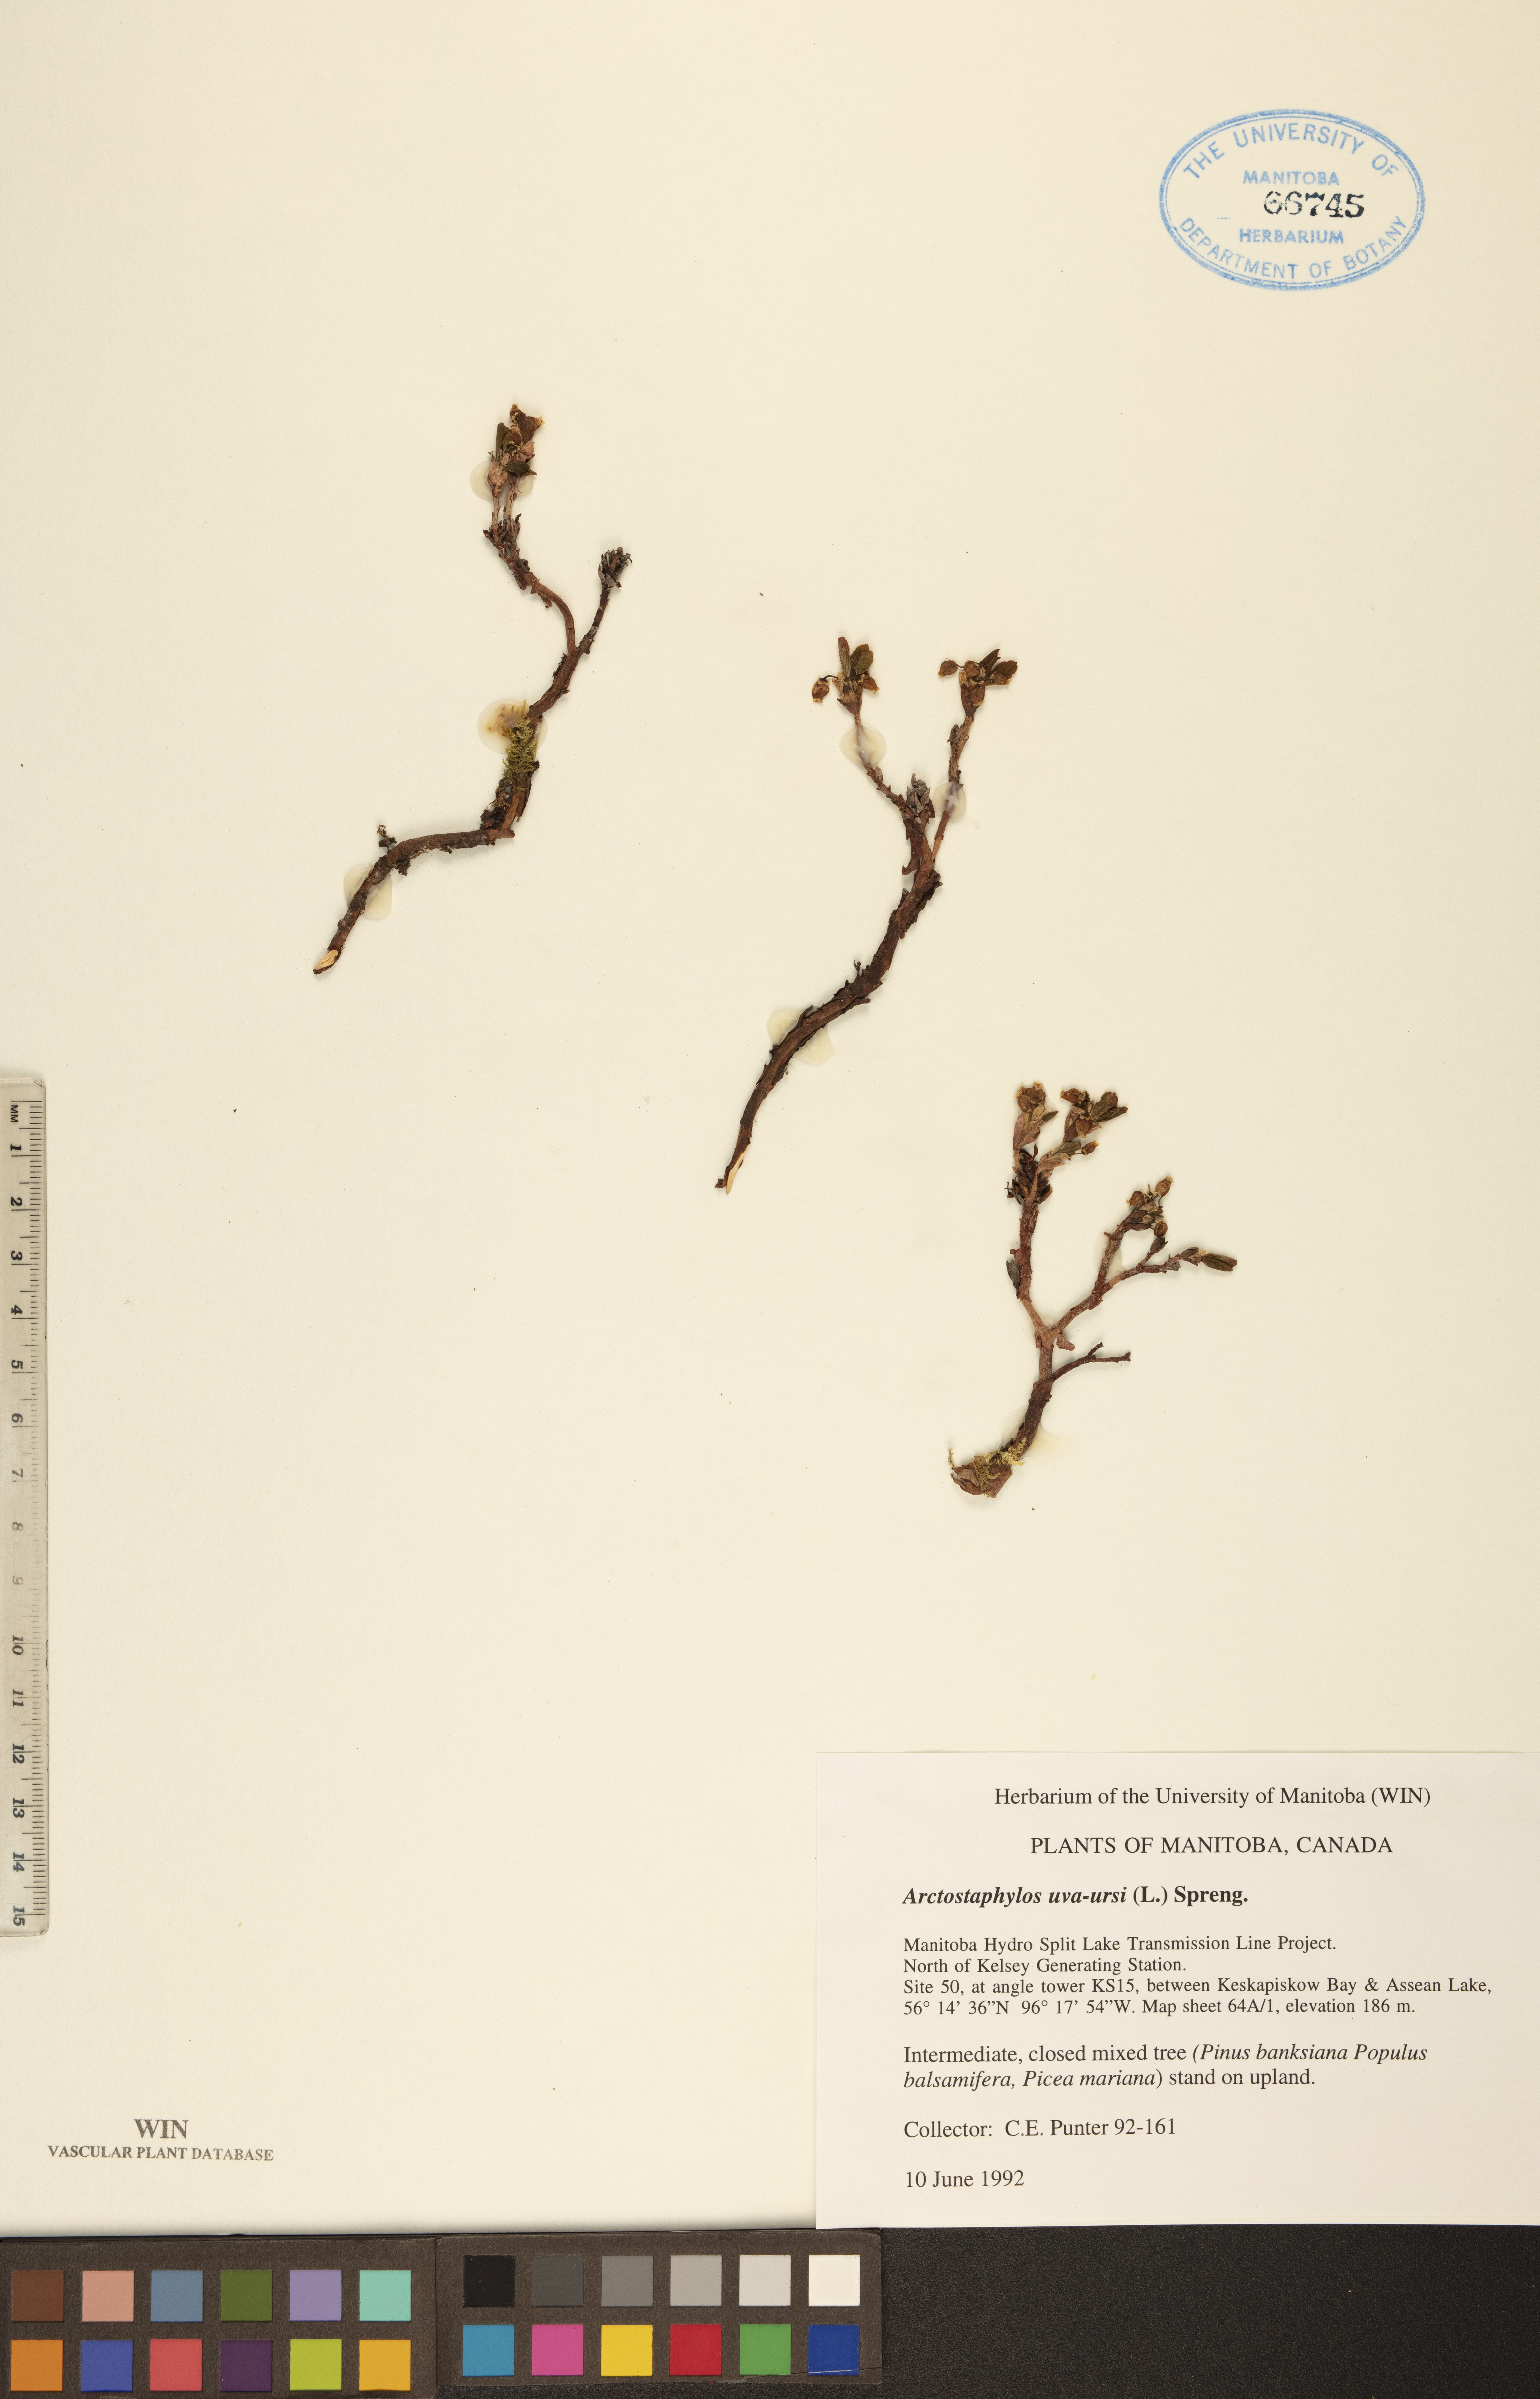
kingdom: Plantae
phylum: Tracheophyta
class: Magnoliopsida
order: Ericales
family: Ericaceae
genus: Arctostaphylos
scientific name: Arctostaphylos uva-ursi
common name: Bearberry
